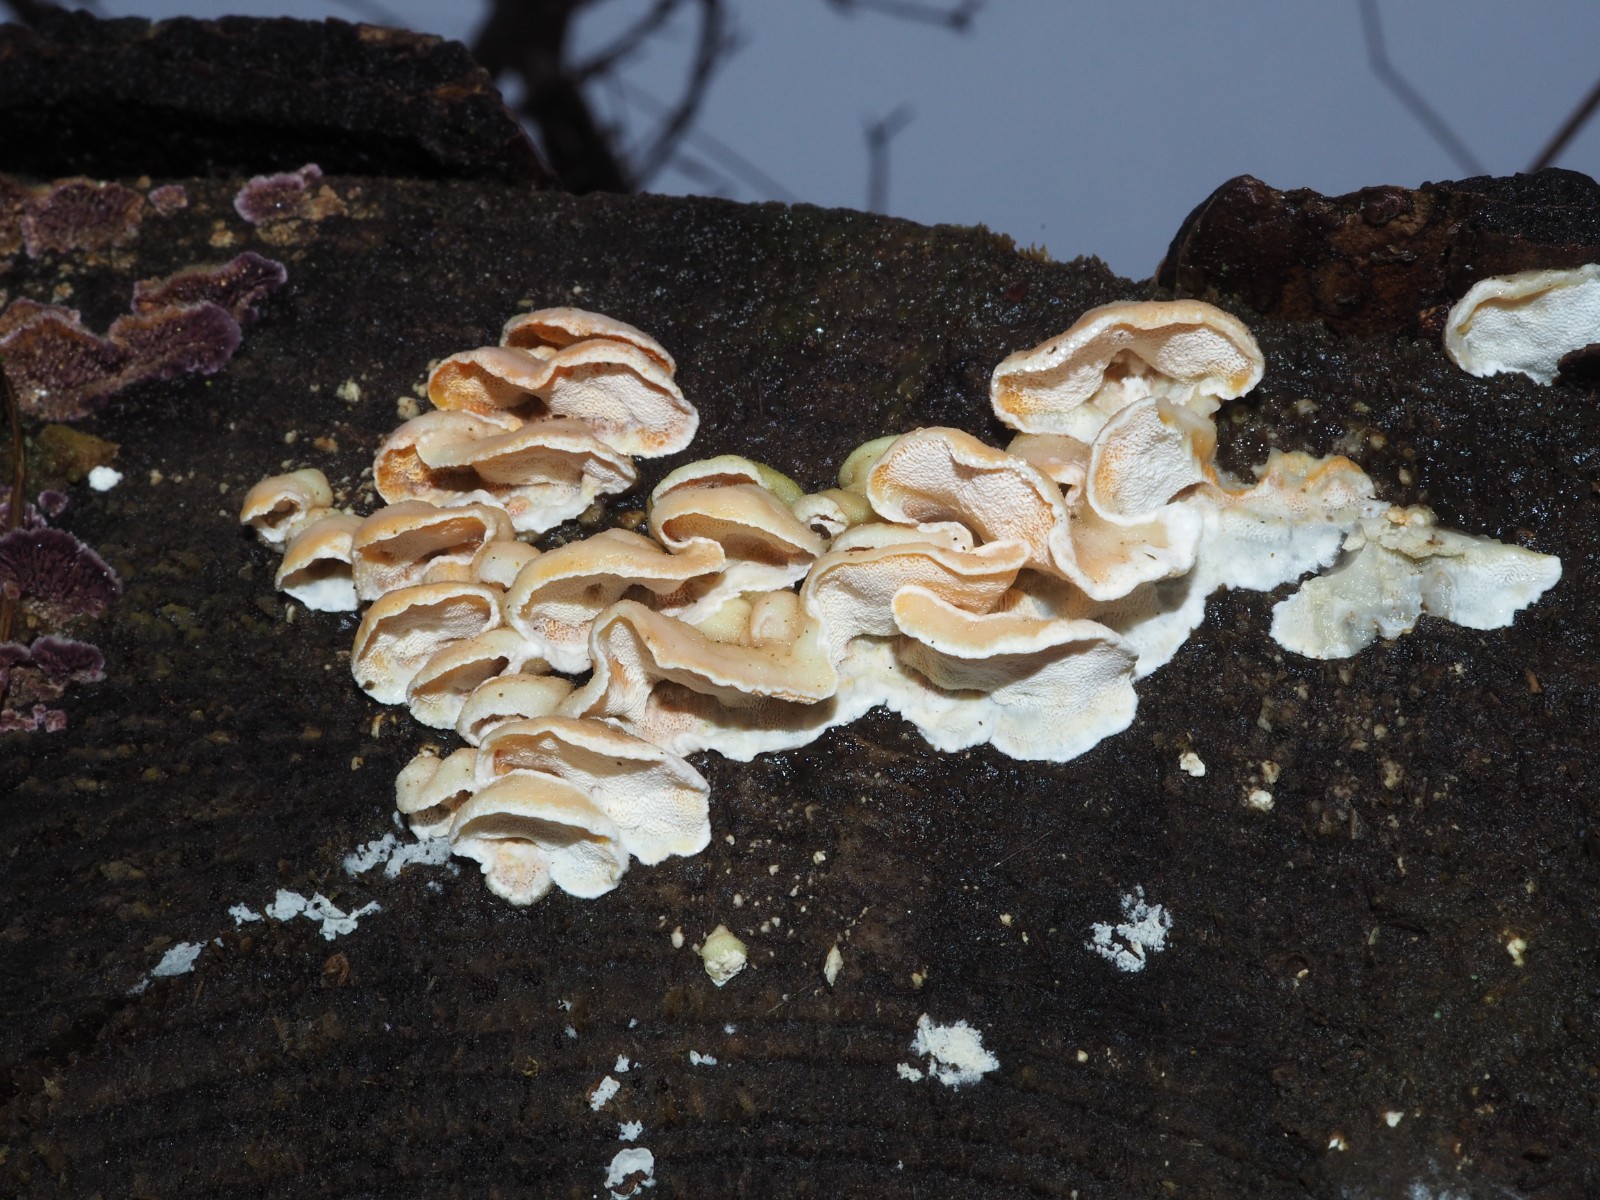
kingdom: Fungi
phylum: Basidiomycota
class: Agaricomycetes
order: Polyporales
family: Incrustoporiaceae
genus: Skeletocutis
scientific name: Skeletocutis amorpha
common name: orange krystalporesvamp
